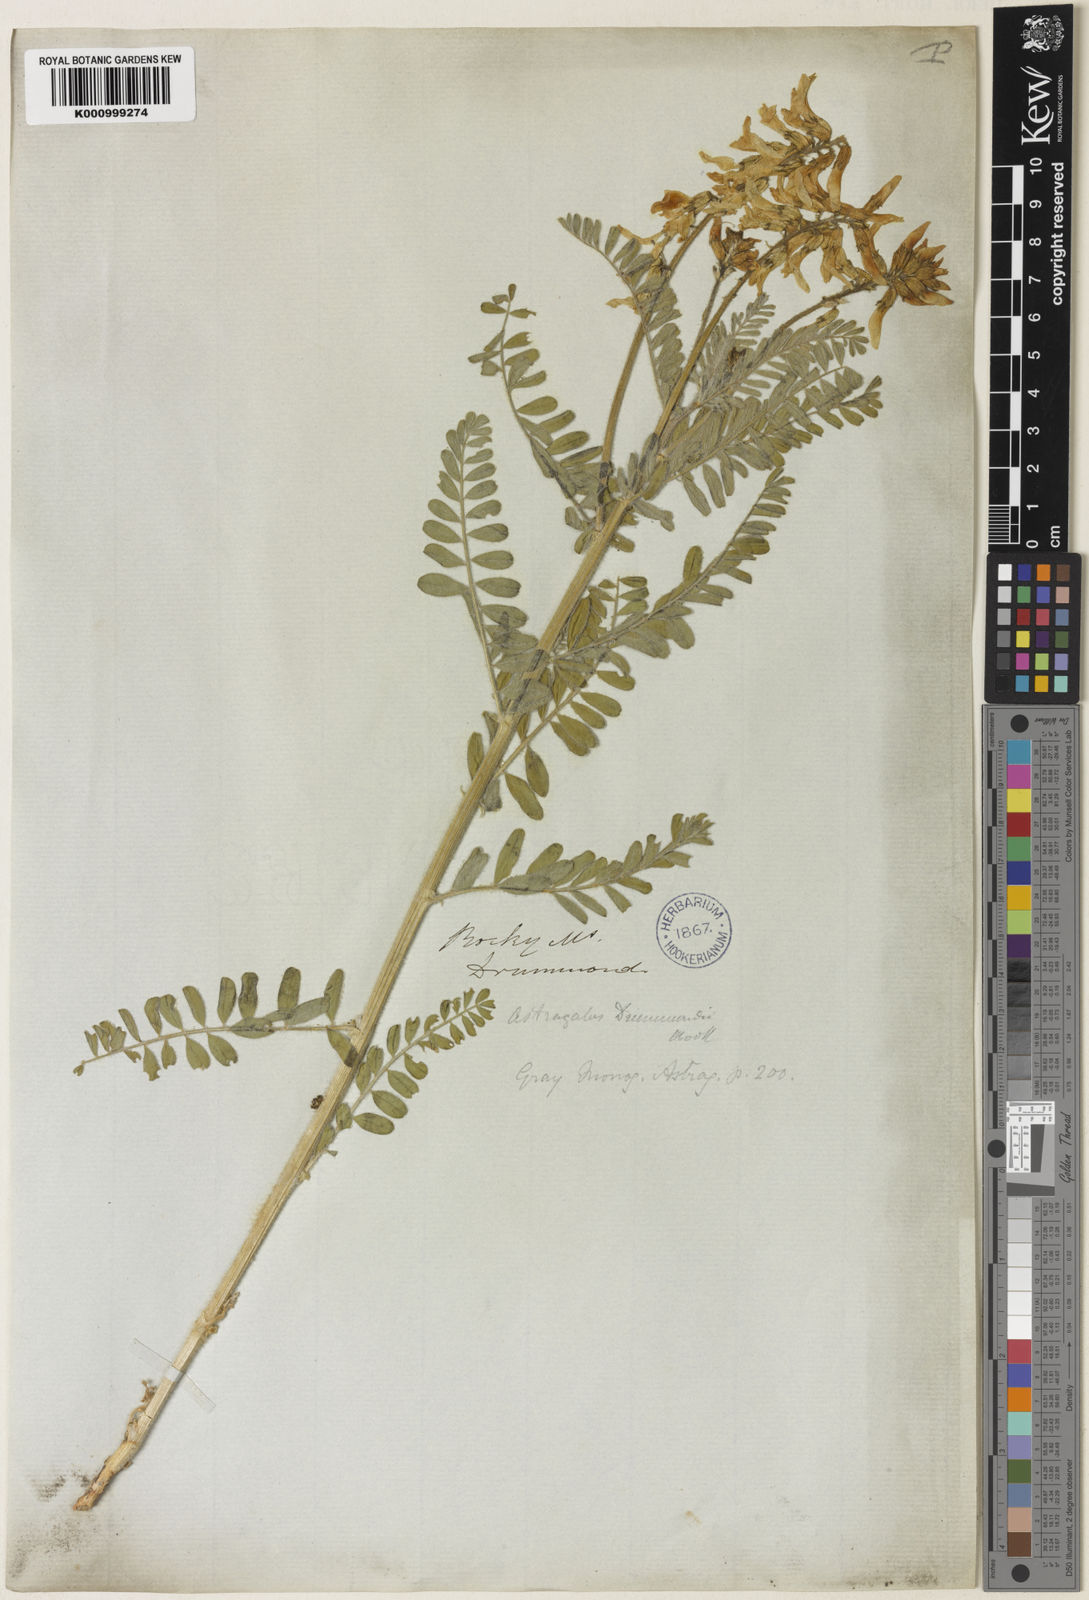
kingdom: Plantae
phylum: Tracheophyta
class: Magnoliopsida
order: Fabales
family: Fabaceae
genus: Astragalus
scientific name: Astragalus
